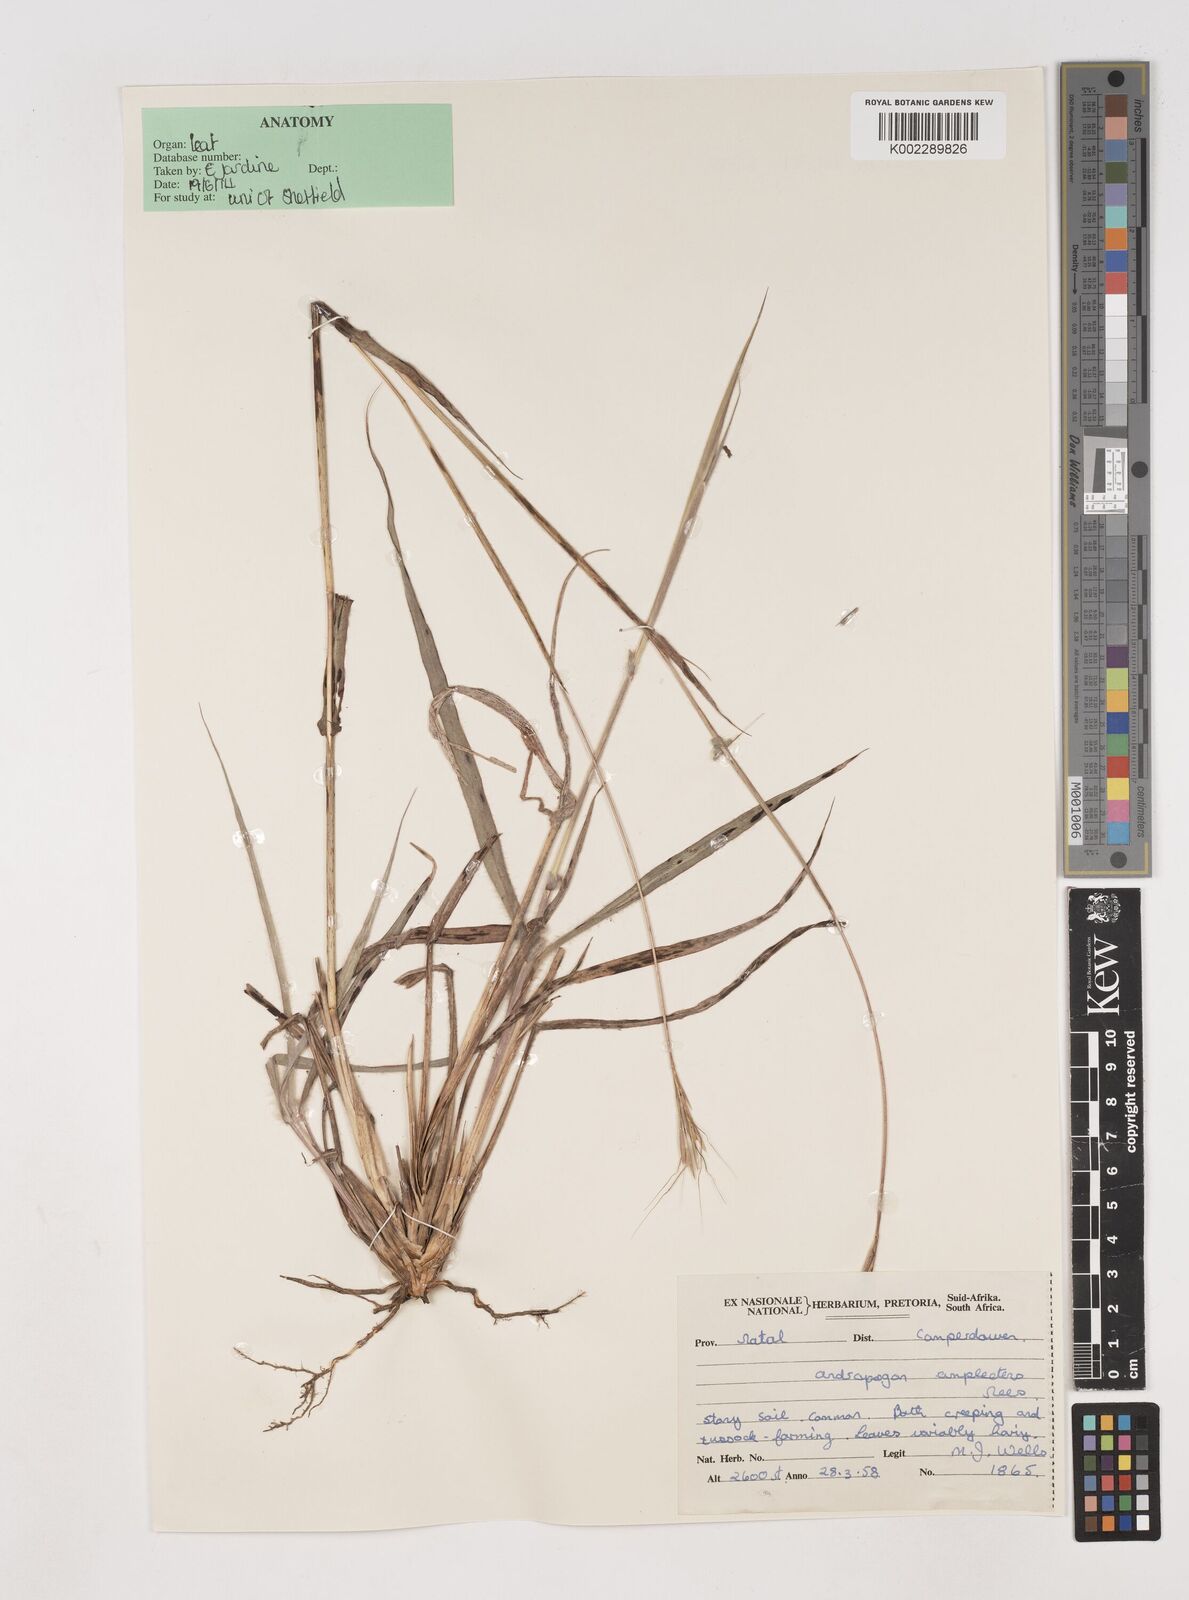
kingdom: Plantae
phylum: Tracheophyta
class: Liliopsida
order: Poales
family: Poaceae
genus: Diheteropogon
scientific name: Diheteropogon amplectens
